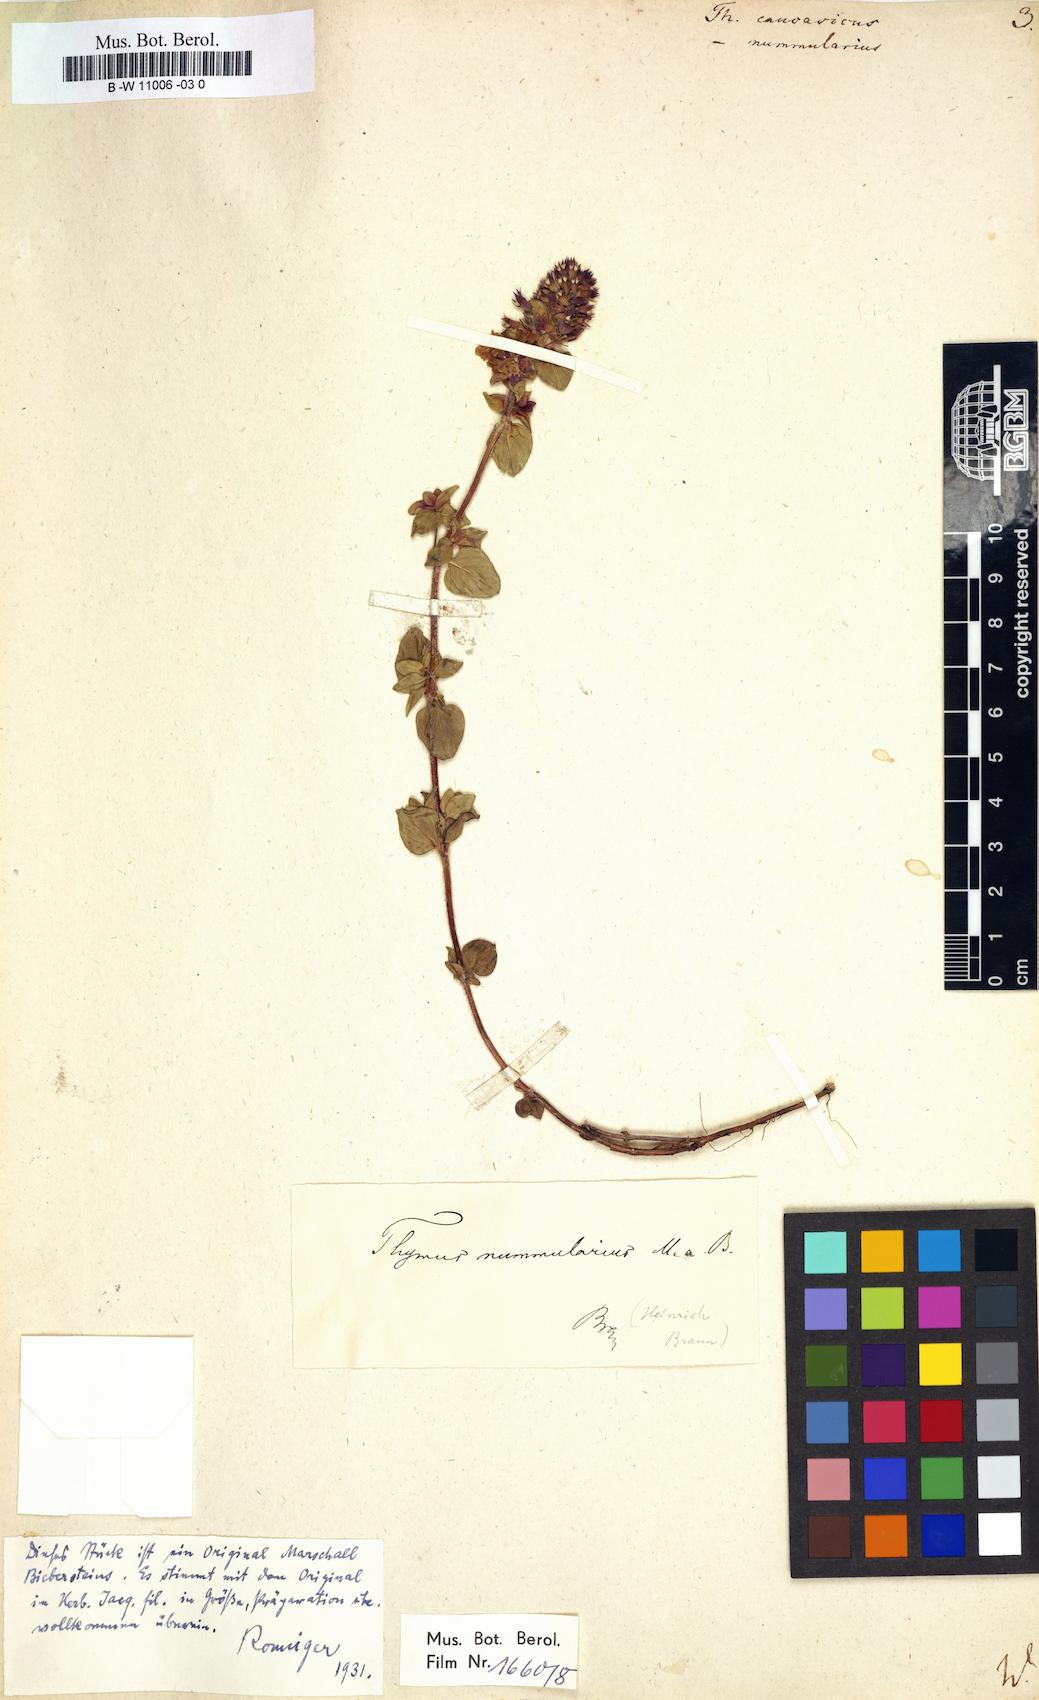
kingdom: Plantae
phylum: Tracheophyta
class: Magnoliopsida
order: Lamiales
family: Lamiaceae
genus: Thymus
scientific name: Thymus
